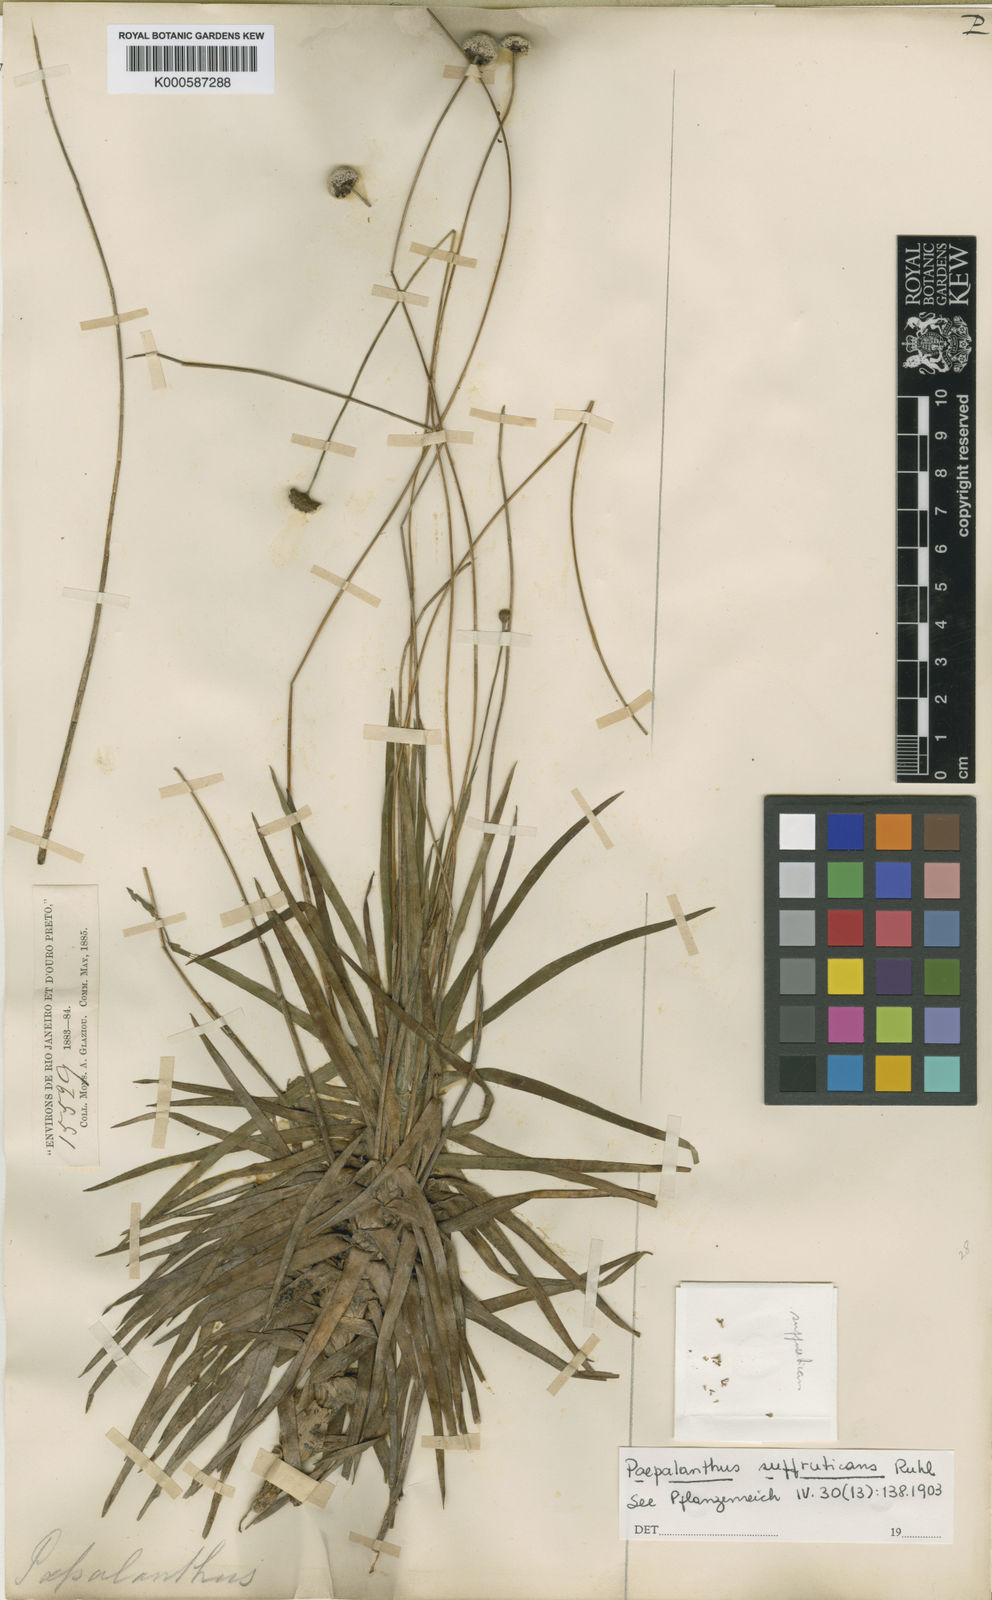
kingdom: Plantae
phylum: Tracheophyta
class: Liliopsida
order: Poales
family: Eriocaulaceae
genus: Paepalanthus
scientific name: Paepalanthus suffruticans
